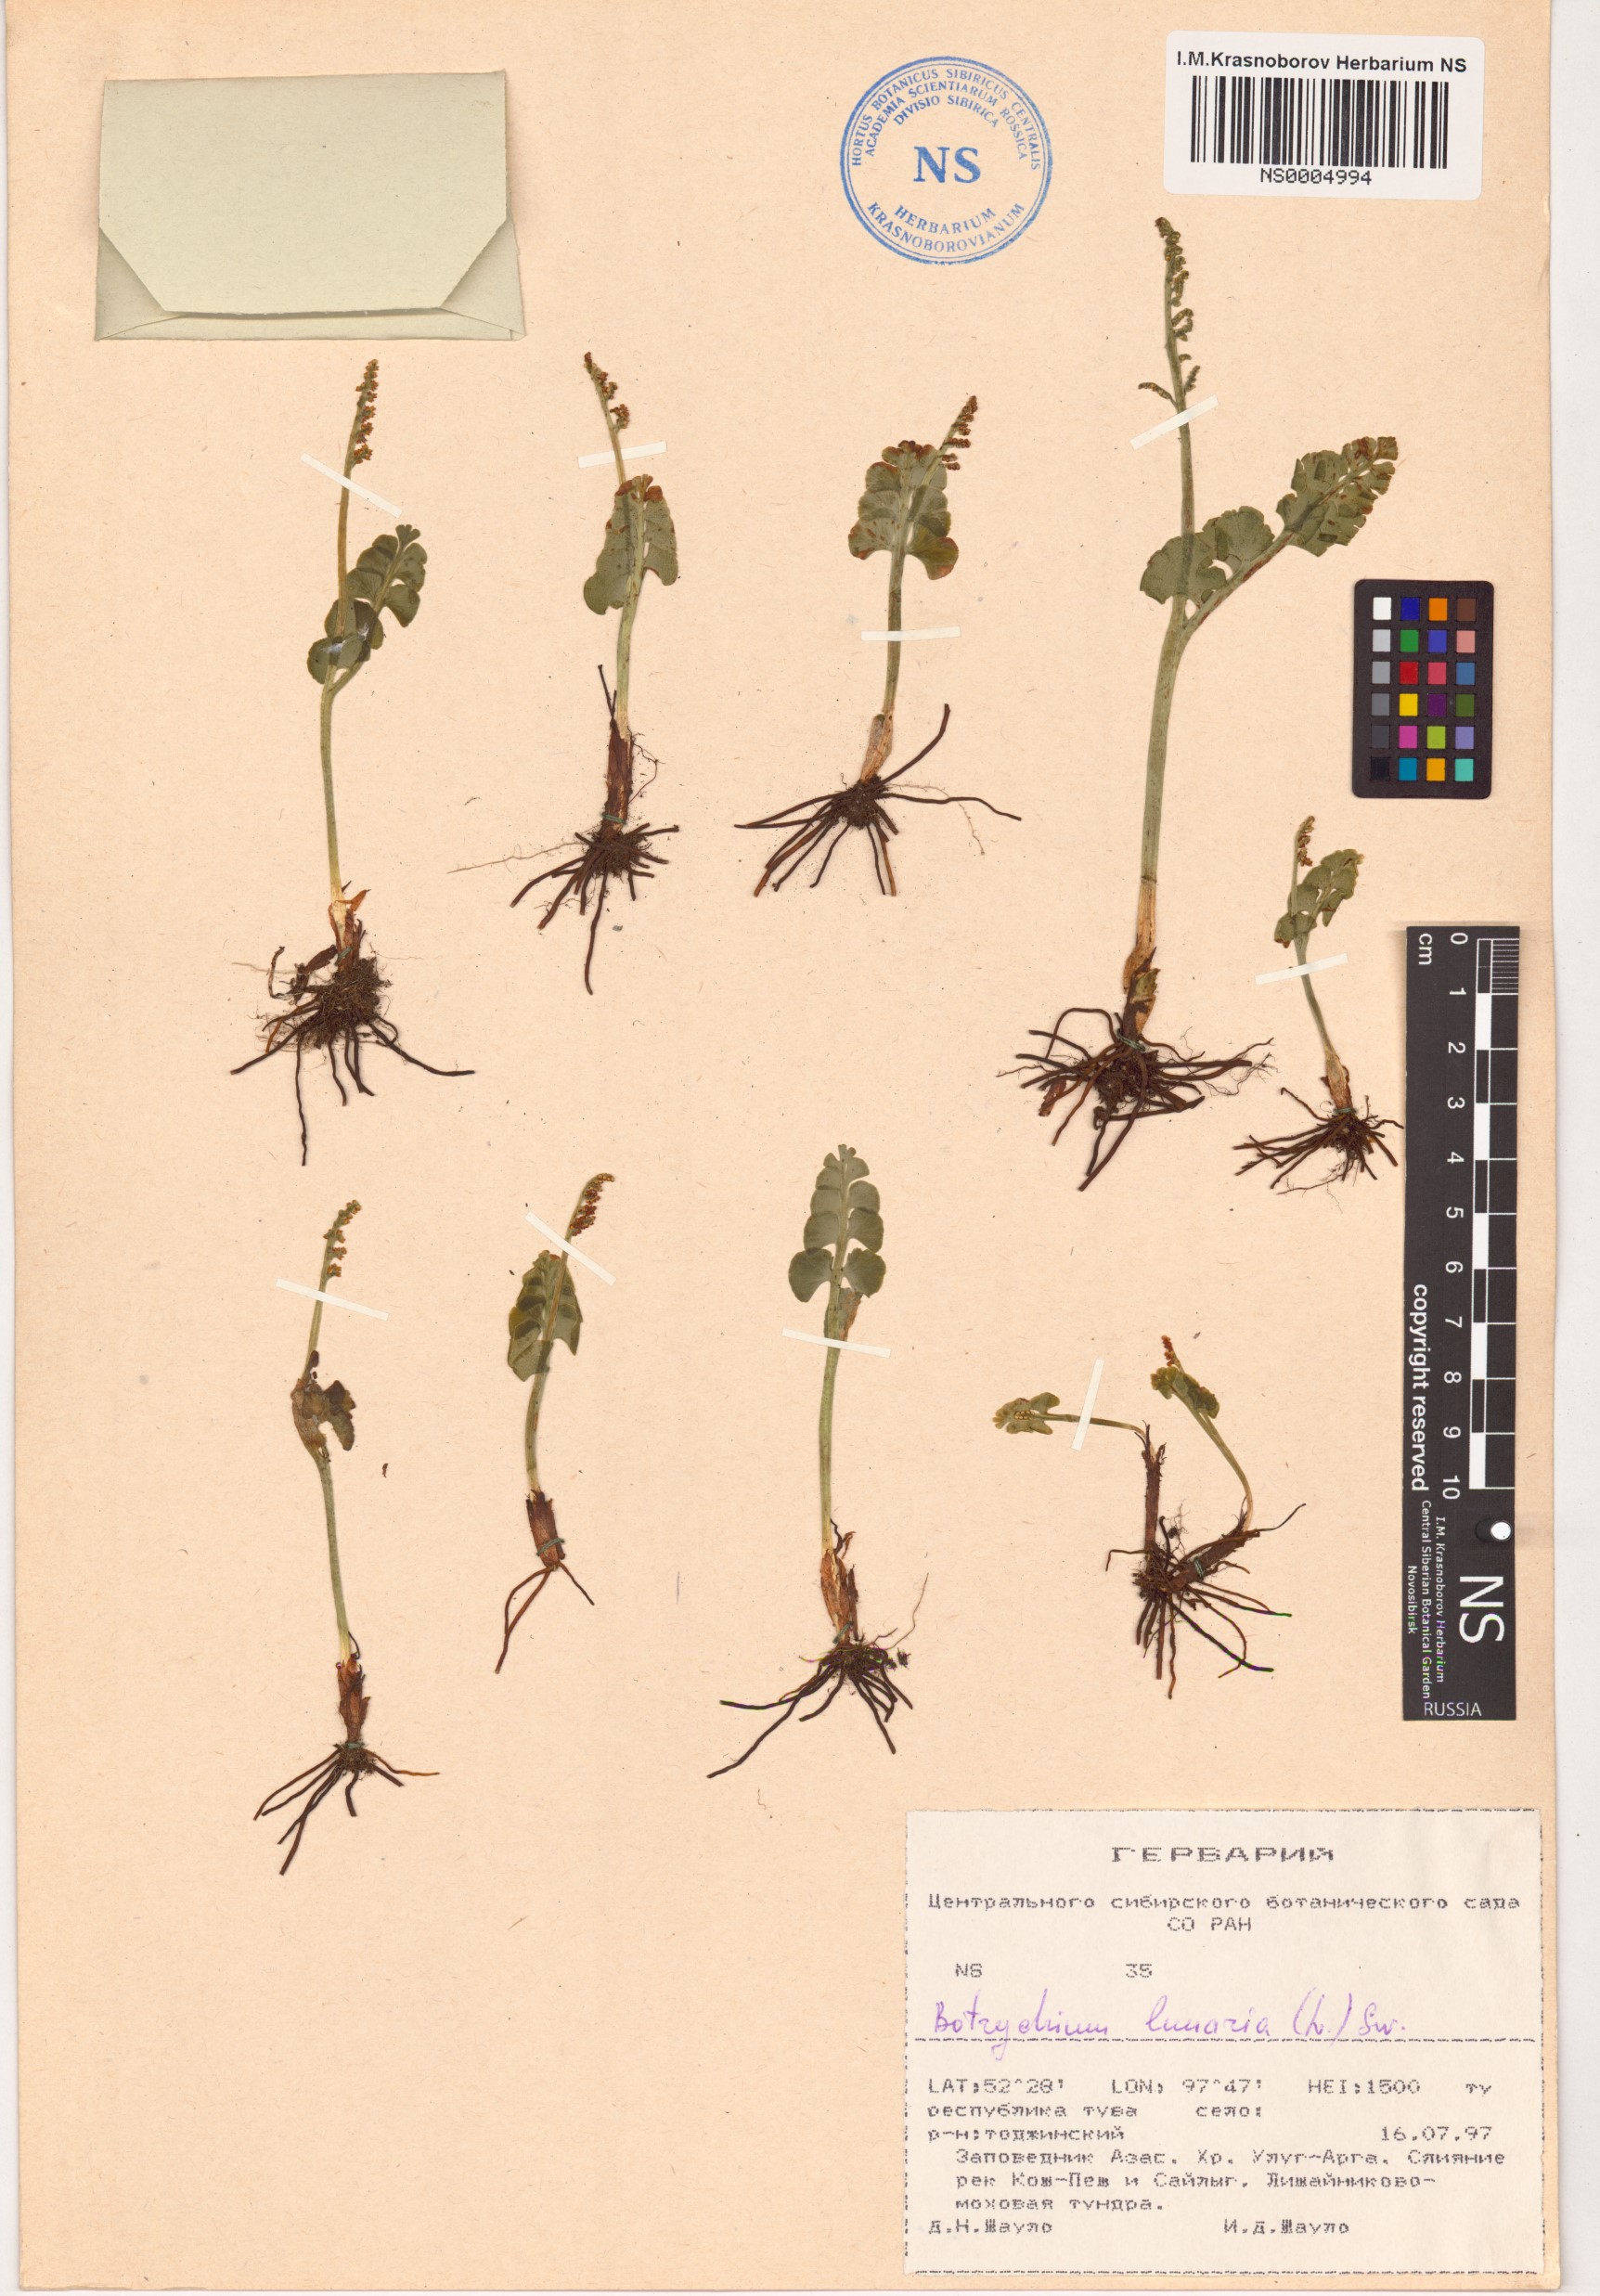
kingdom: Plantae
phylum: Tracheophyta
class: Polypodiopsida
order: Ophioglossales
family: Ophioglossaceae
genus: Botrychium
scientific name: Botrychium lunaria
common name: Moonwort
